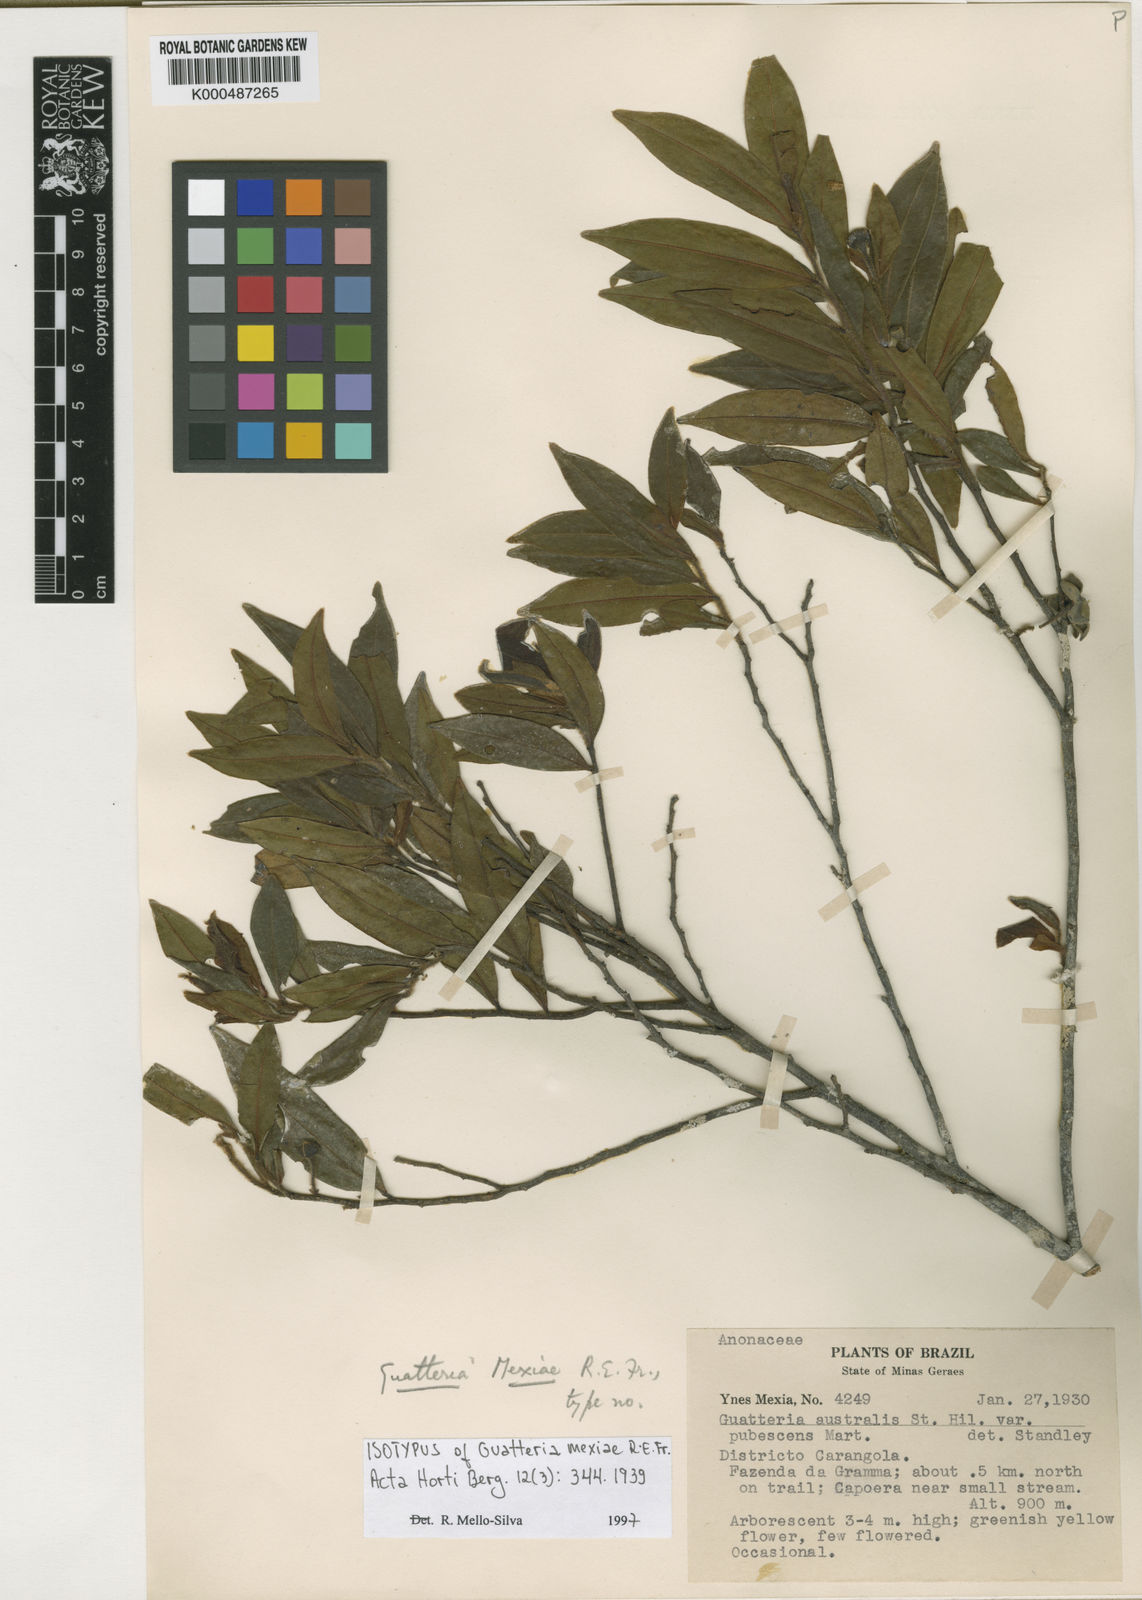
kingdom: Plantae
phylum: Tracheophyta
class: Magnoliopsida
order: Magnoliales
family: Annonaceae
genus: Guatteria
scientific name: Guatteria sellowiana
